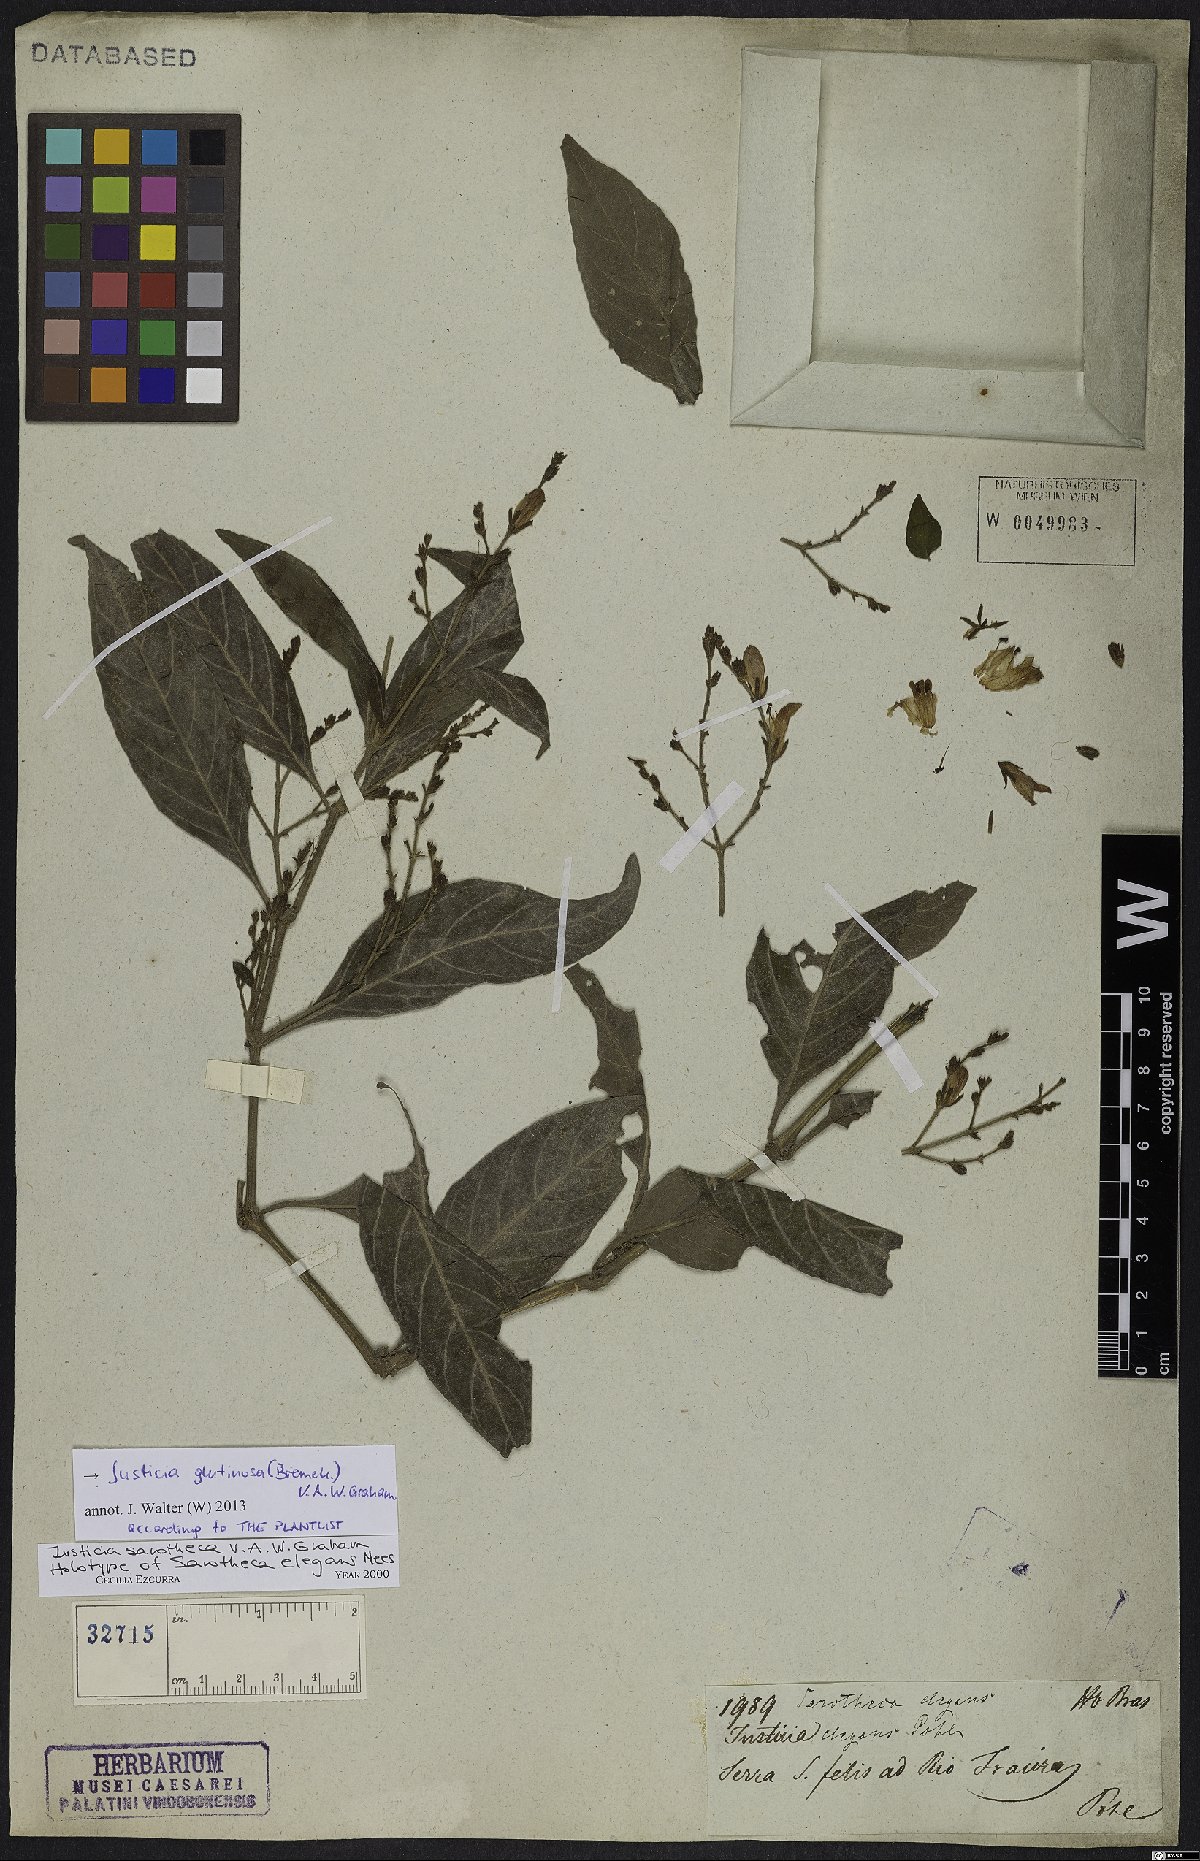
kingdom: Plantae
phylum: Tracheophyta
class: Magnoliopsida
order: Lamiales
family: Acanthaceae
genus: Justicia
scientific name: Justicia glutinosa
